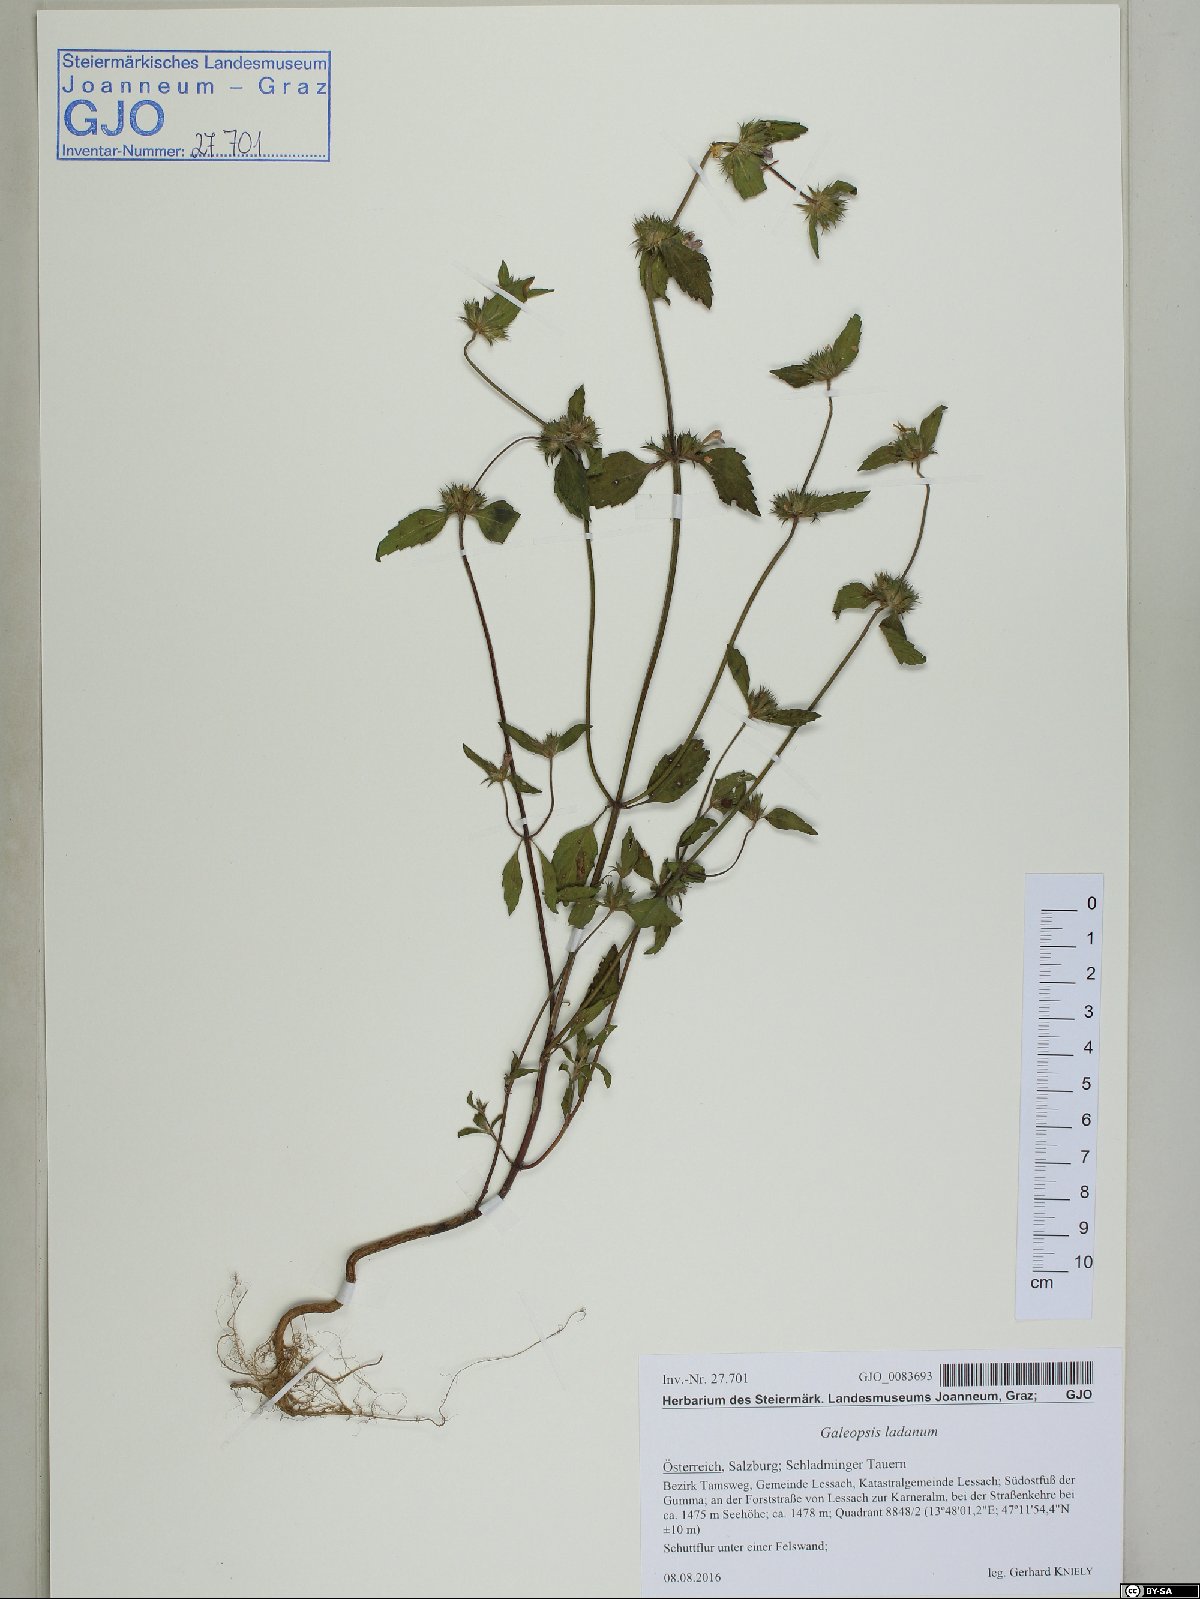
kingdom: Plantae
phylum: Tracheophyta
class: Magnoliopsida
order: Lamiales
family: Lamiaceae
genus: Galeopsis
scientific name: Galeopsis ladanum
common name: Broad-leaved hemp-nettle
